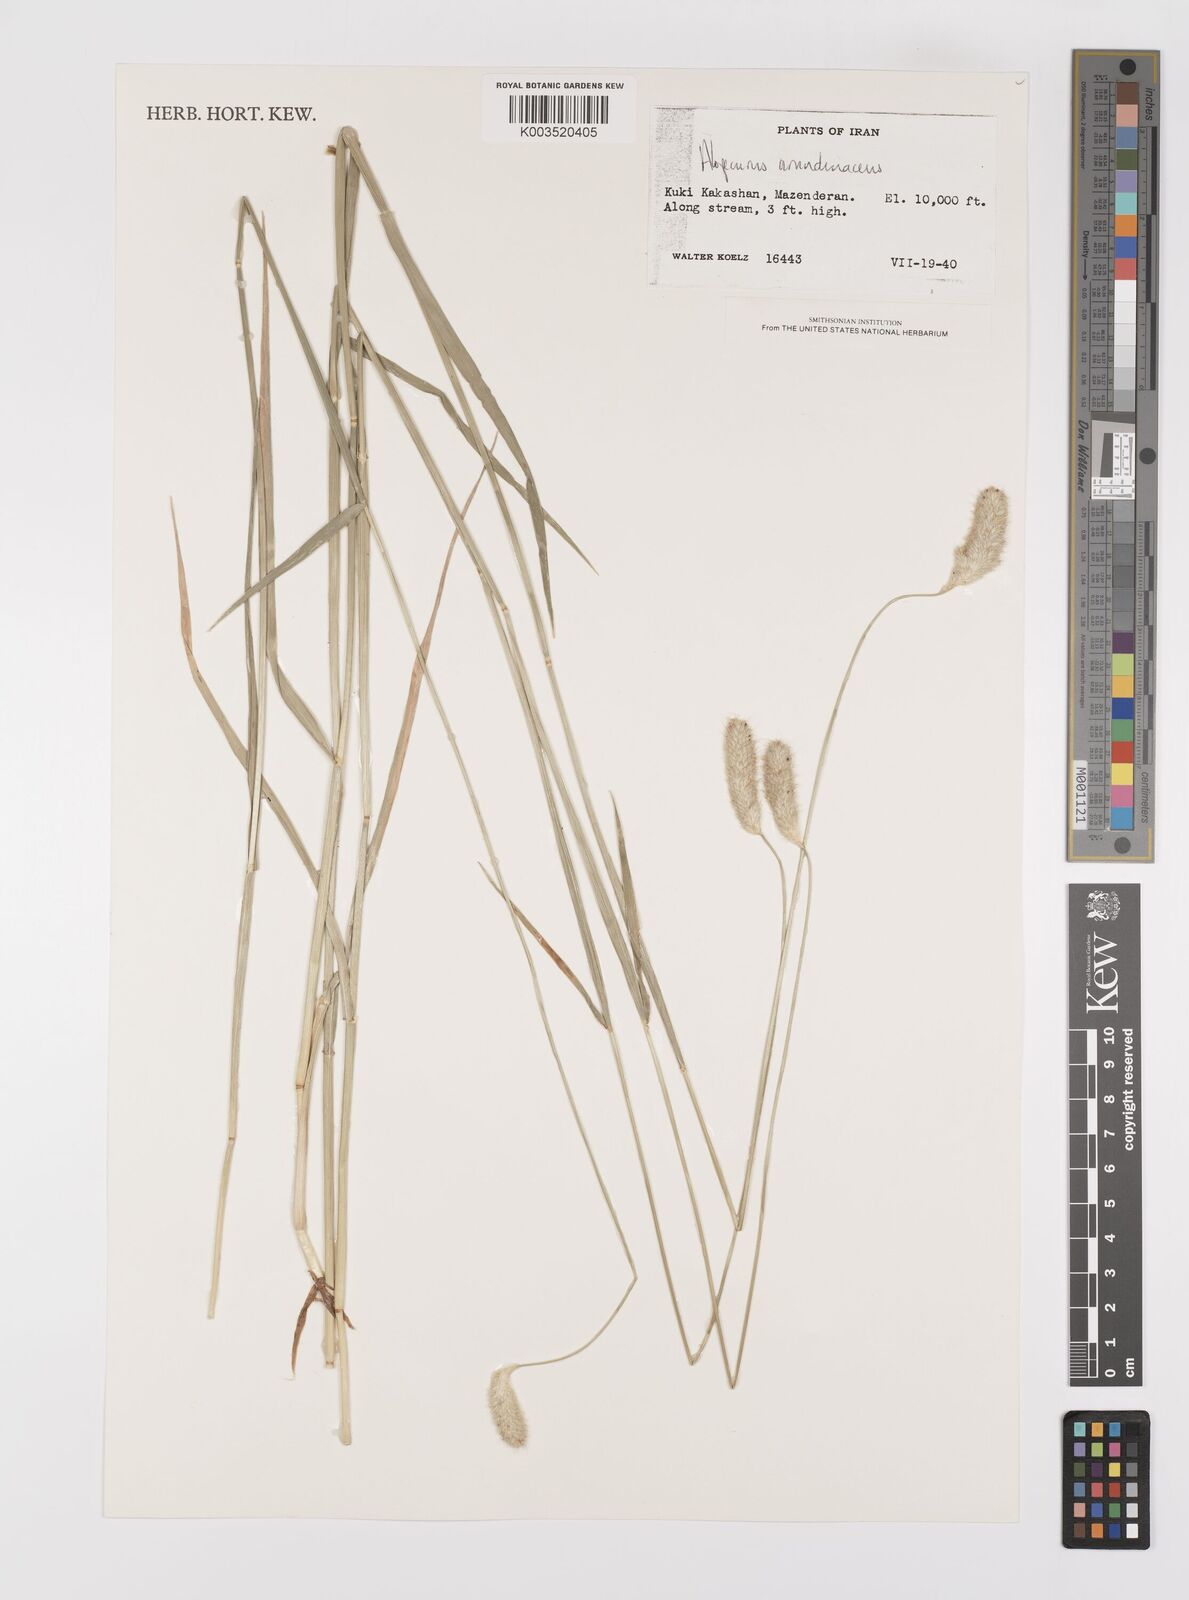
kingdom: Plantae
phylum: Tracheophyta
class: Liliopsida
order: Poales
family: Poaceae
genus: Alopecurus
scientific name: Alopecurus arundinaceus
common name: Creeping meadow foxtail
